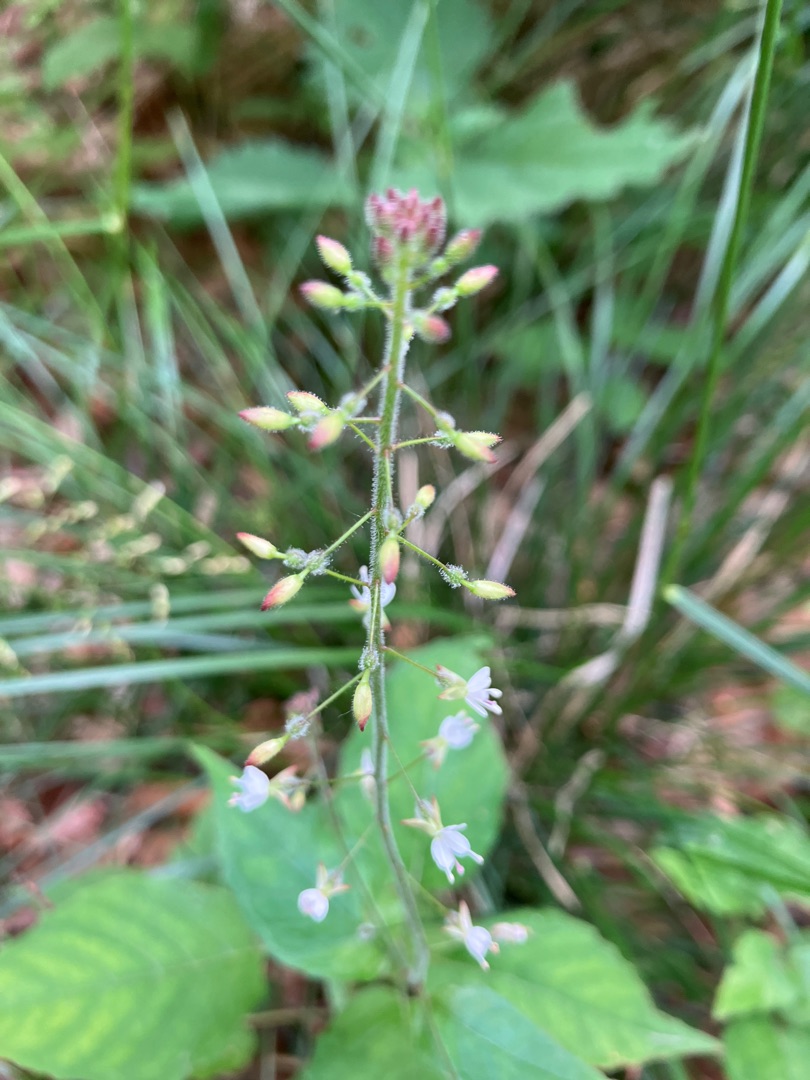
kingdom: Plantae
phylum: Tracheophyta
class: Magnoliopsida
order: Myrtales
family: Onagraceae
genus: Circaea
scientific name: Circaea lutetiana
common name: Dunet steffensurt
